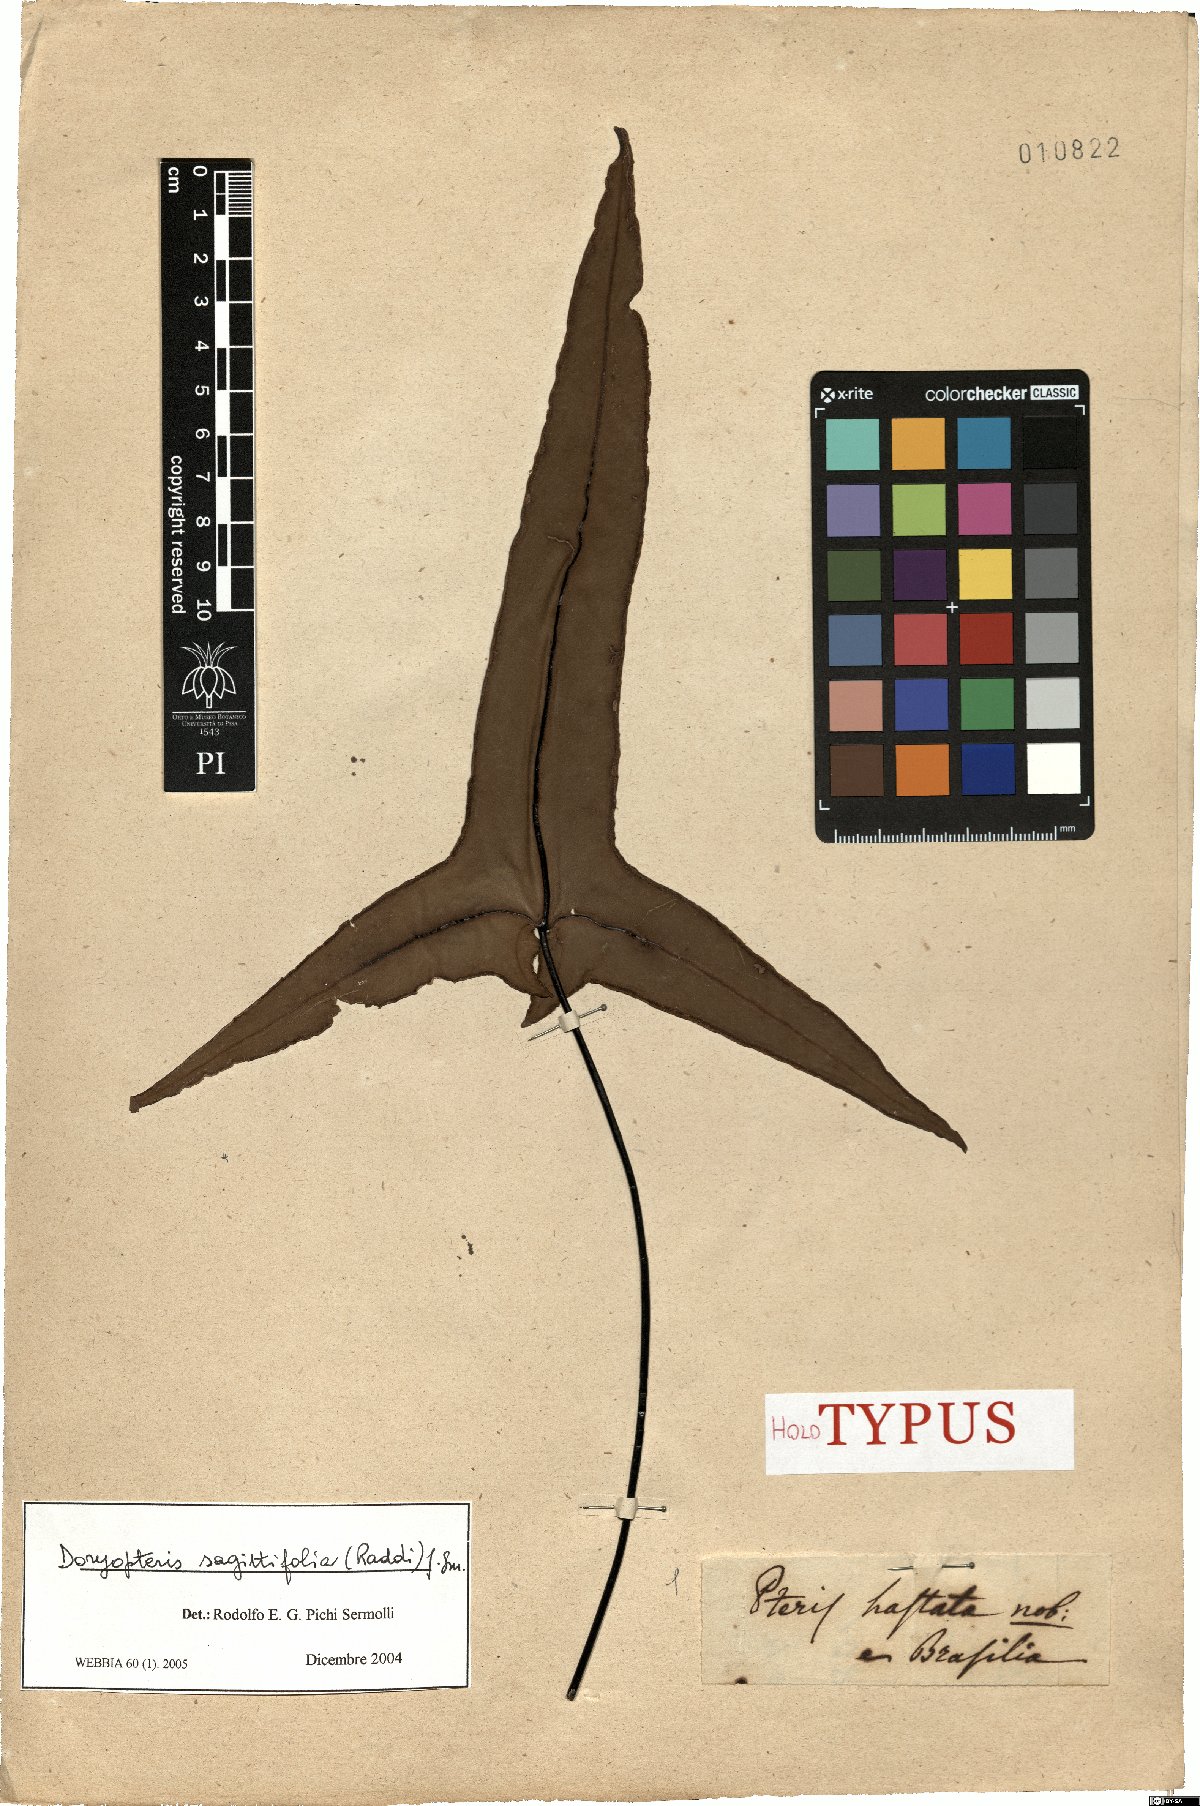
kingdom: Plantae
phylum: Tracheophyta
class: Polypodiopsida
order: Polypodiales
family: Pteridaceae
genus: Doryopteris
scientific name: Doryopteris sagittifolia
